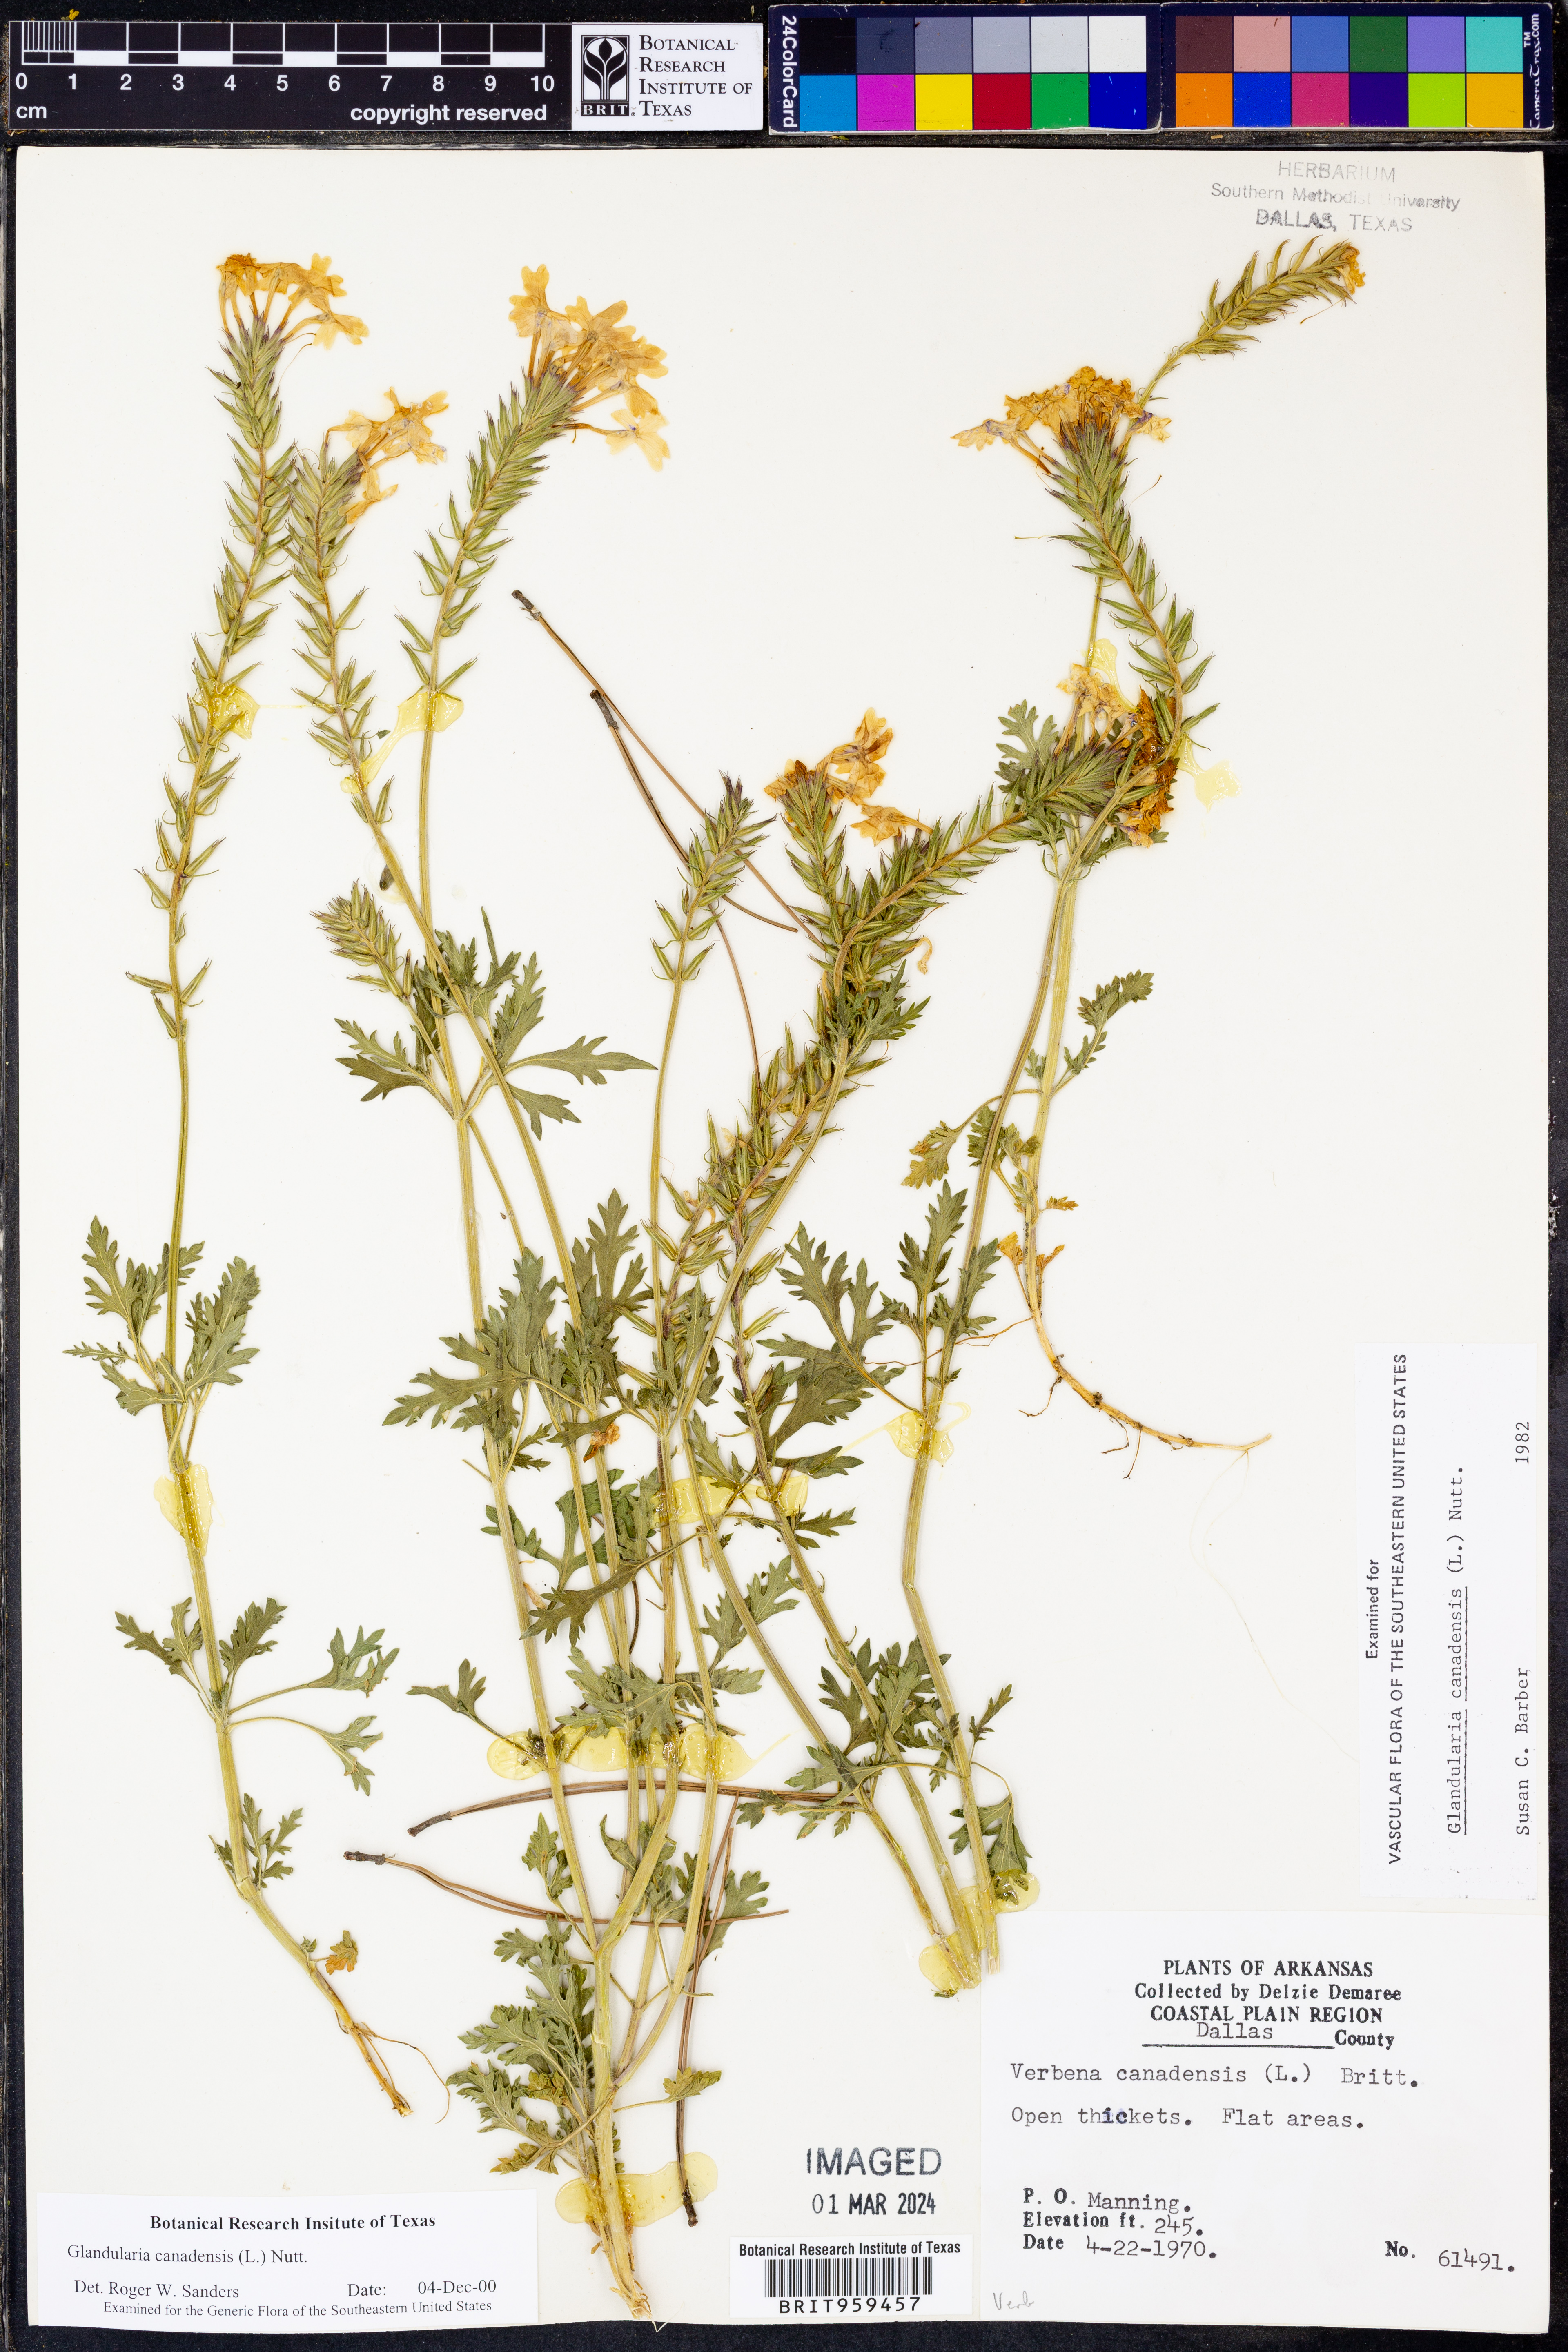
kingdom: Plantae
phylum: Tracheophyta
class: Magnoliopsida
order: Lamiales
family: Verbenaceae
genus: Verbena
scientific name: Verbena canadensis
